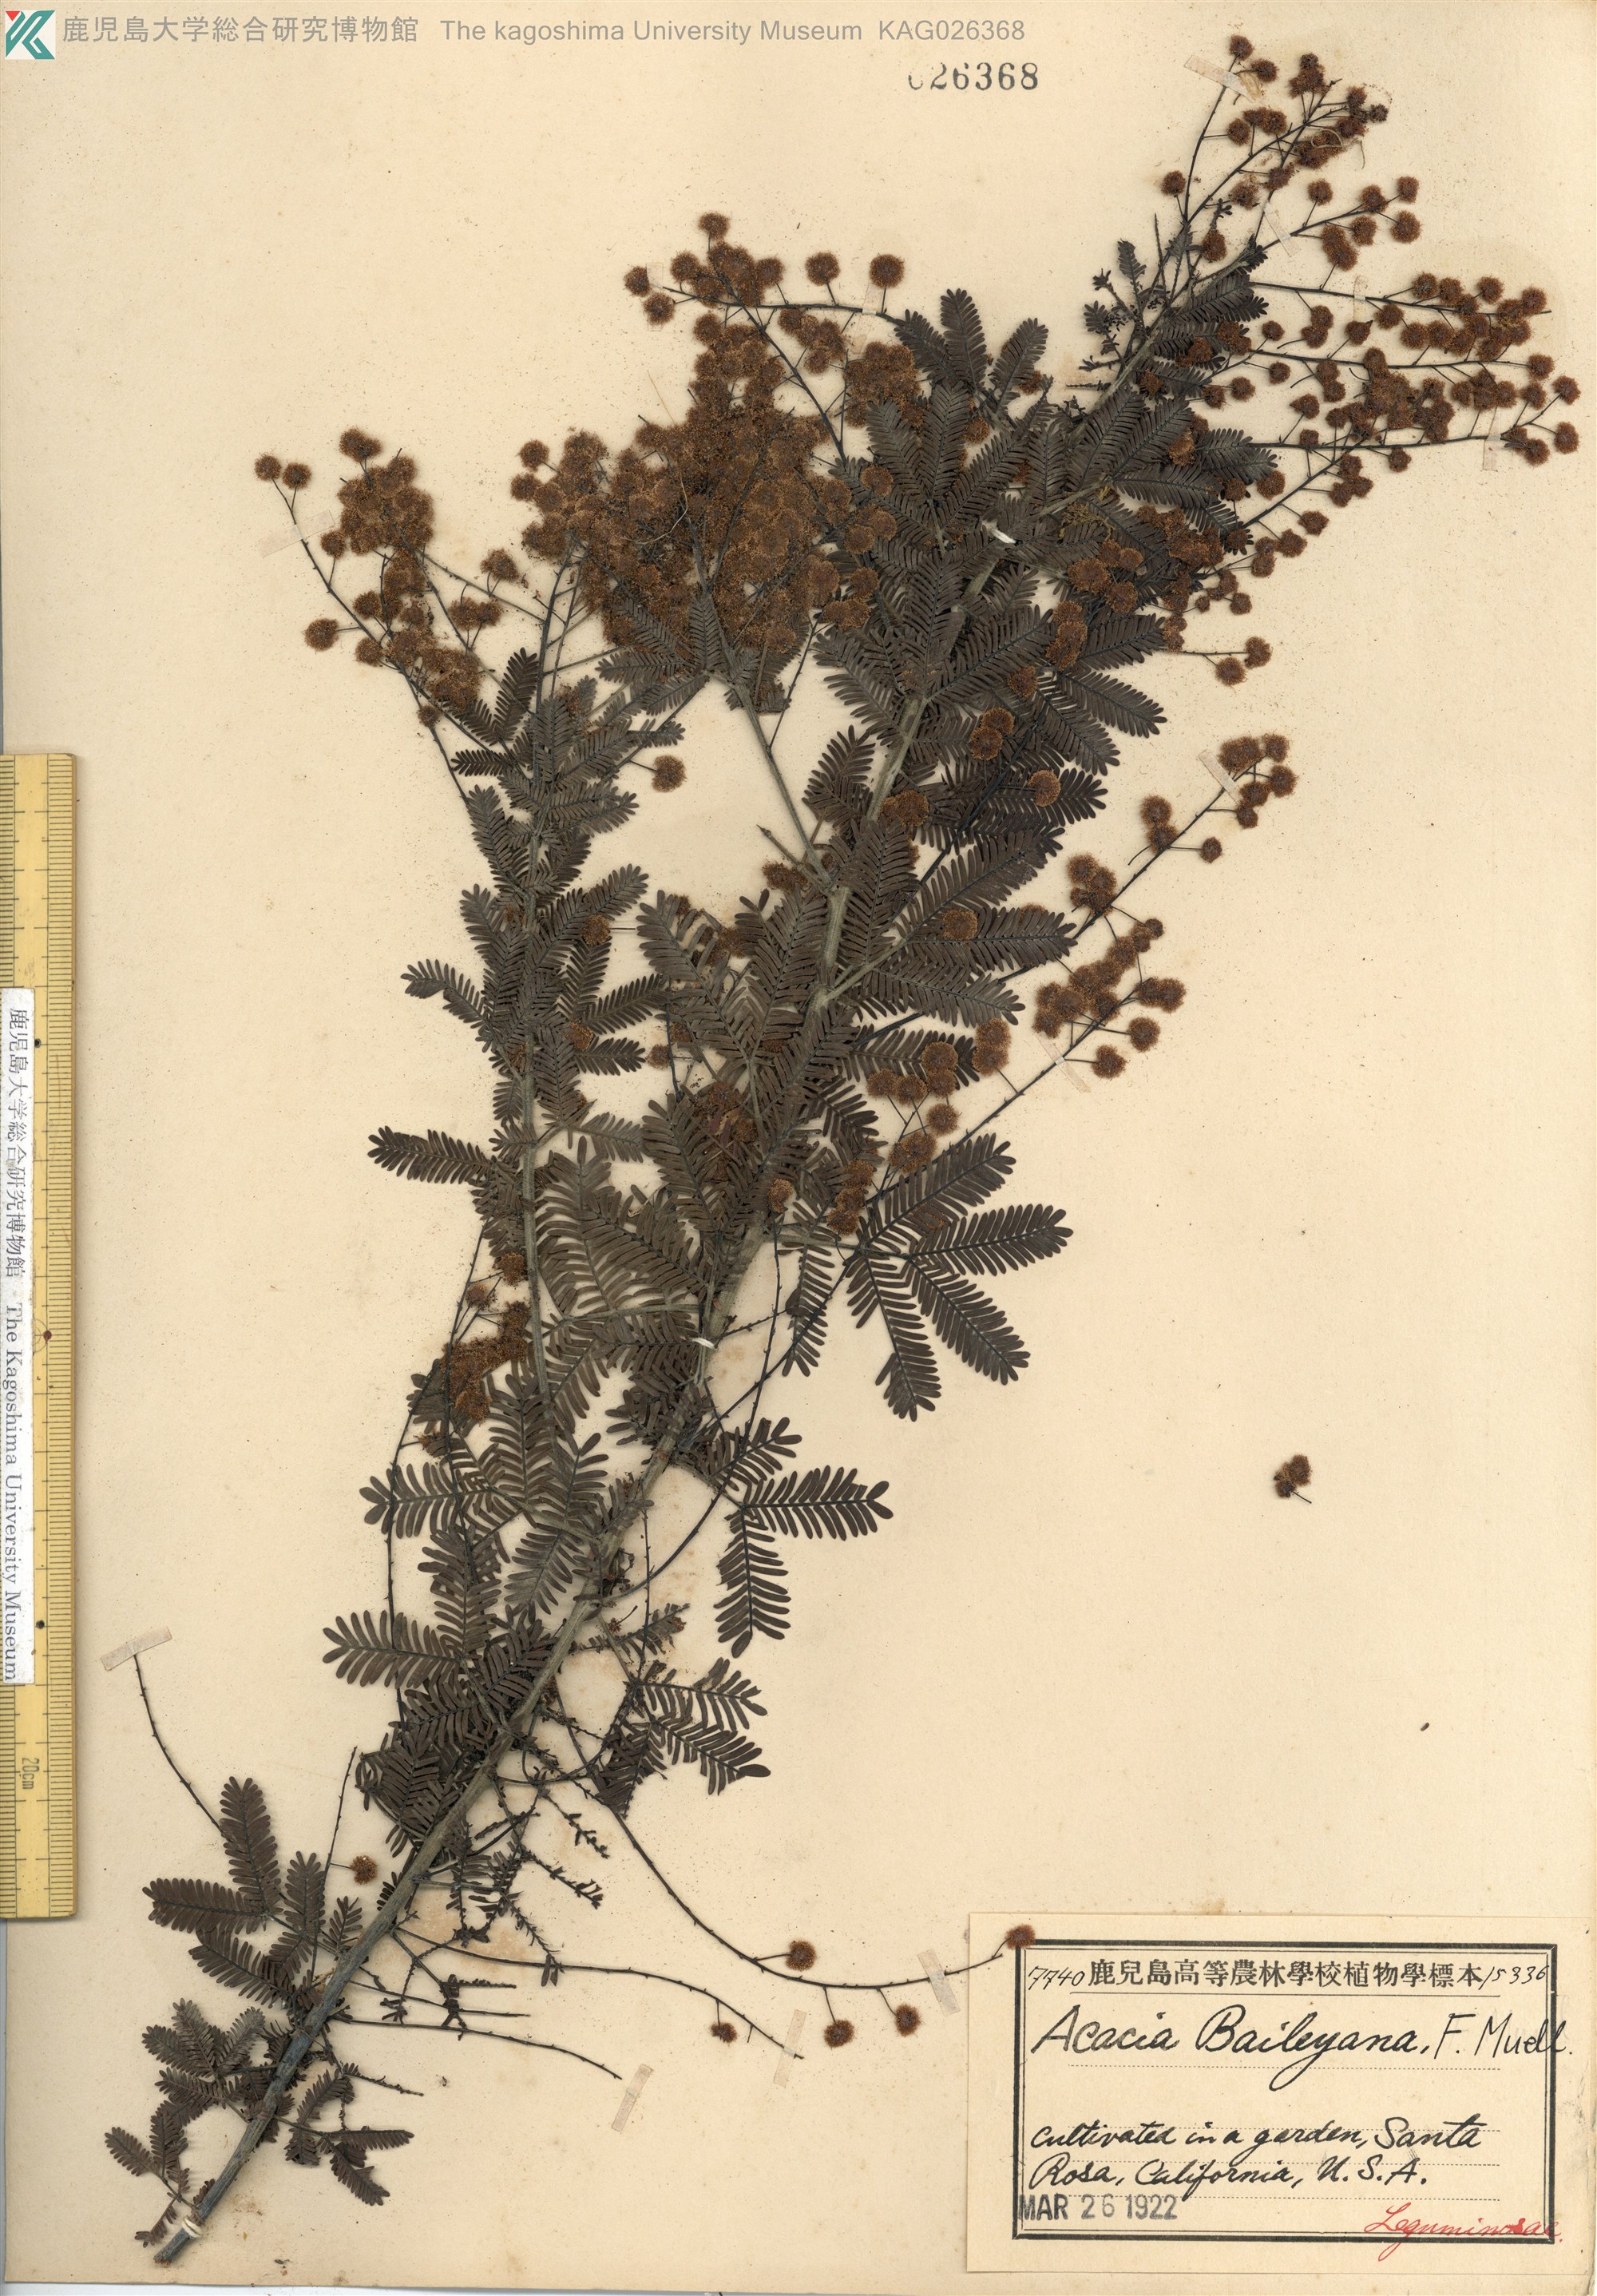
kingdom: Plantae
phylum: Tracheophyta
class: Magnoliopsida
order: Fabales
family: Fabaceae
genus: Acacia
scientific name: Acacia baileyana
